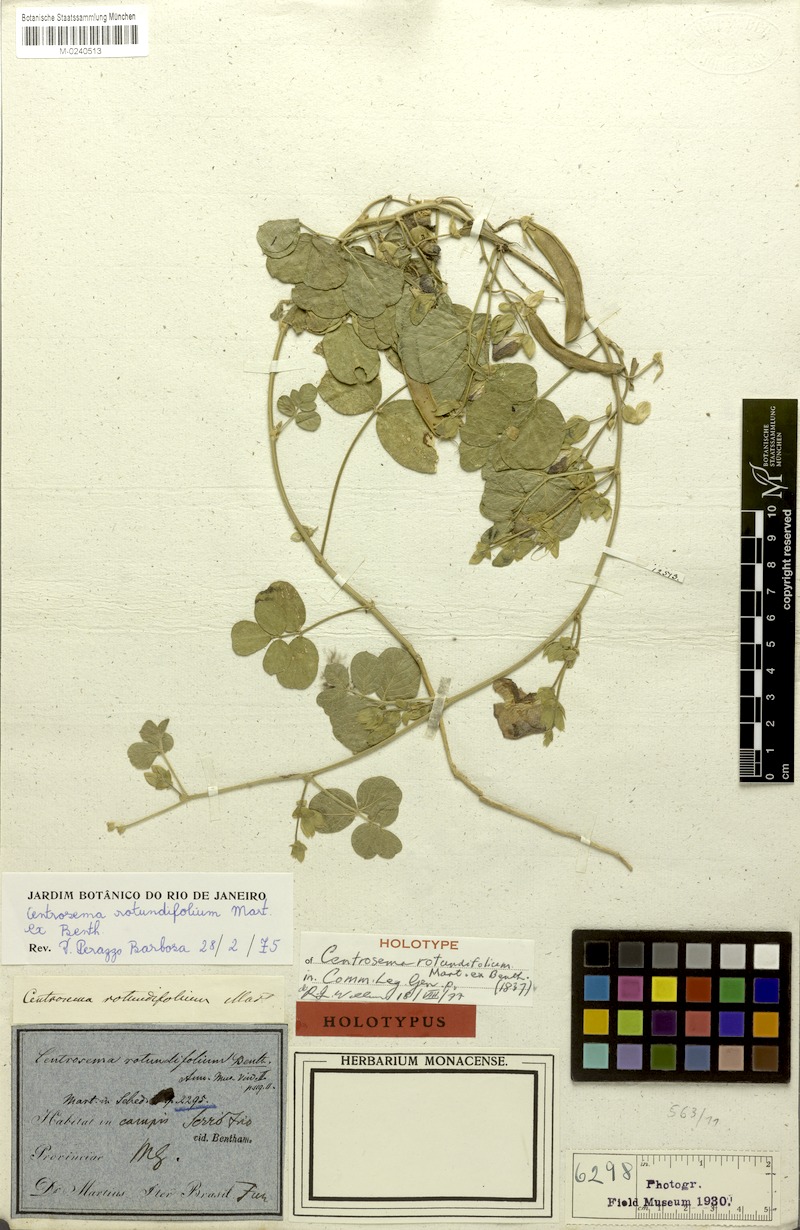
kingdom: Plantae
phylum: Tracheophyta
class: Magnoliopsida
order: Fabales
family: Fabaceae
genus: Centrosema
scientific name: Centrosema rotundifolium
